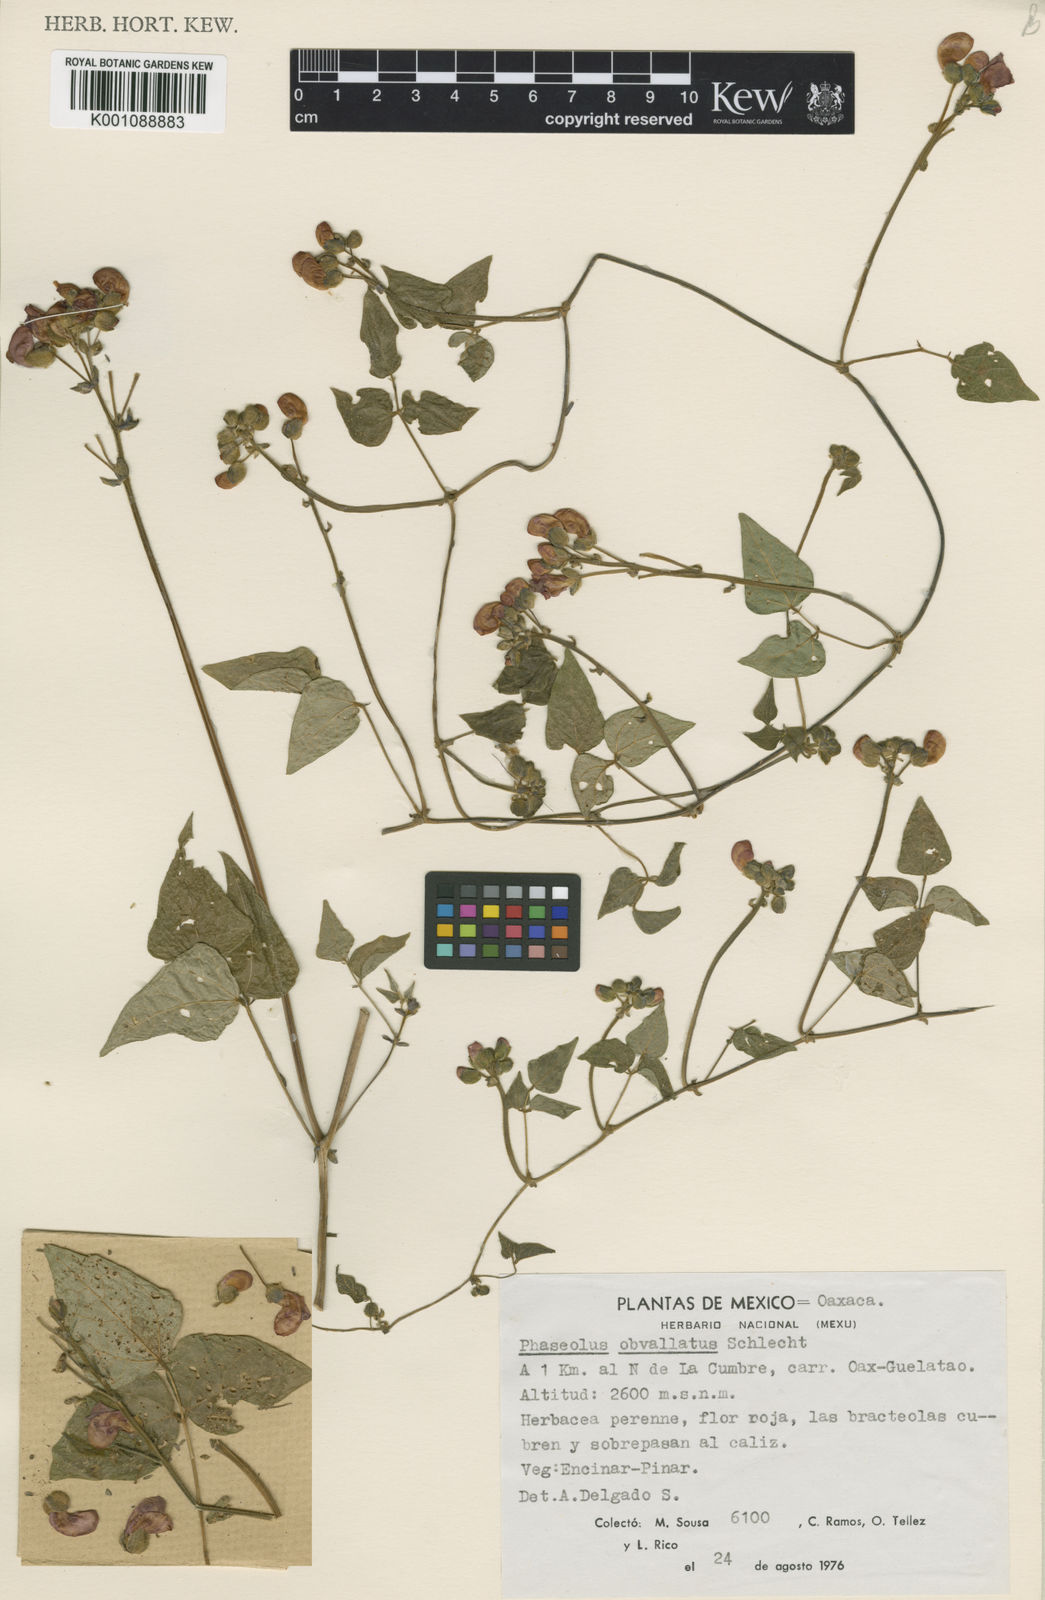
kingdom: Plantae
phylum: Tracheophyta
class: Magnoliopsida
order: Fabales
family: Fabaceae
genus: Phaseolus
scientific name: Phaseolus coccineus
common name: Runner bean
